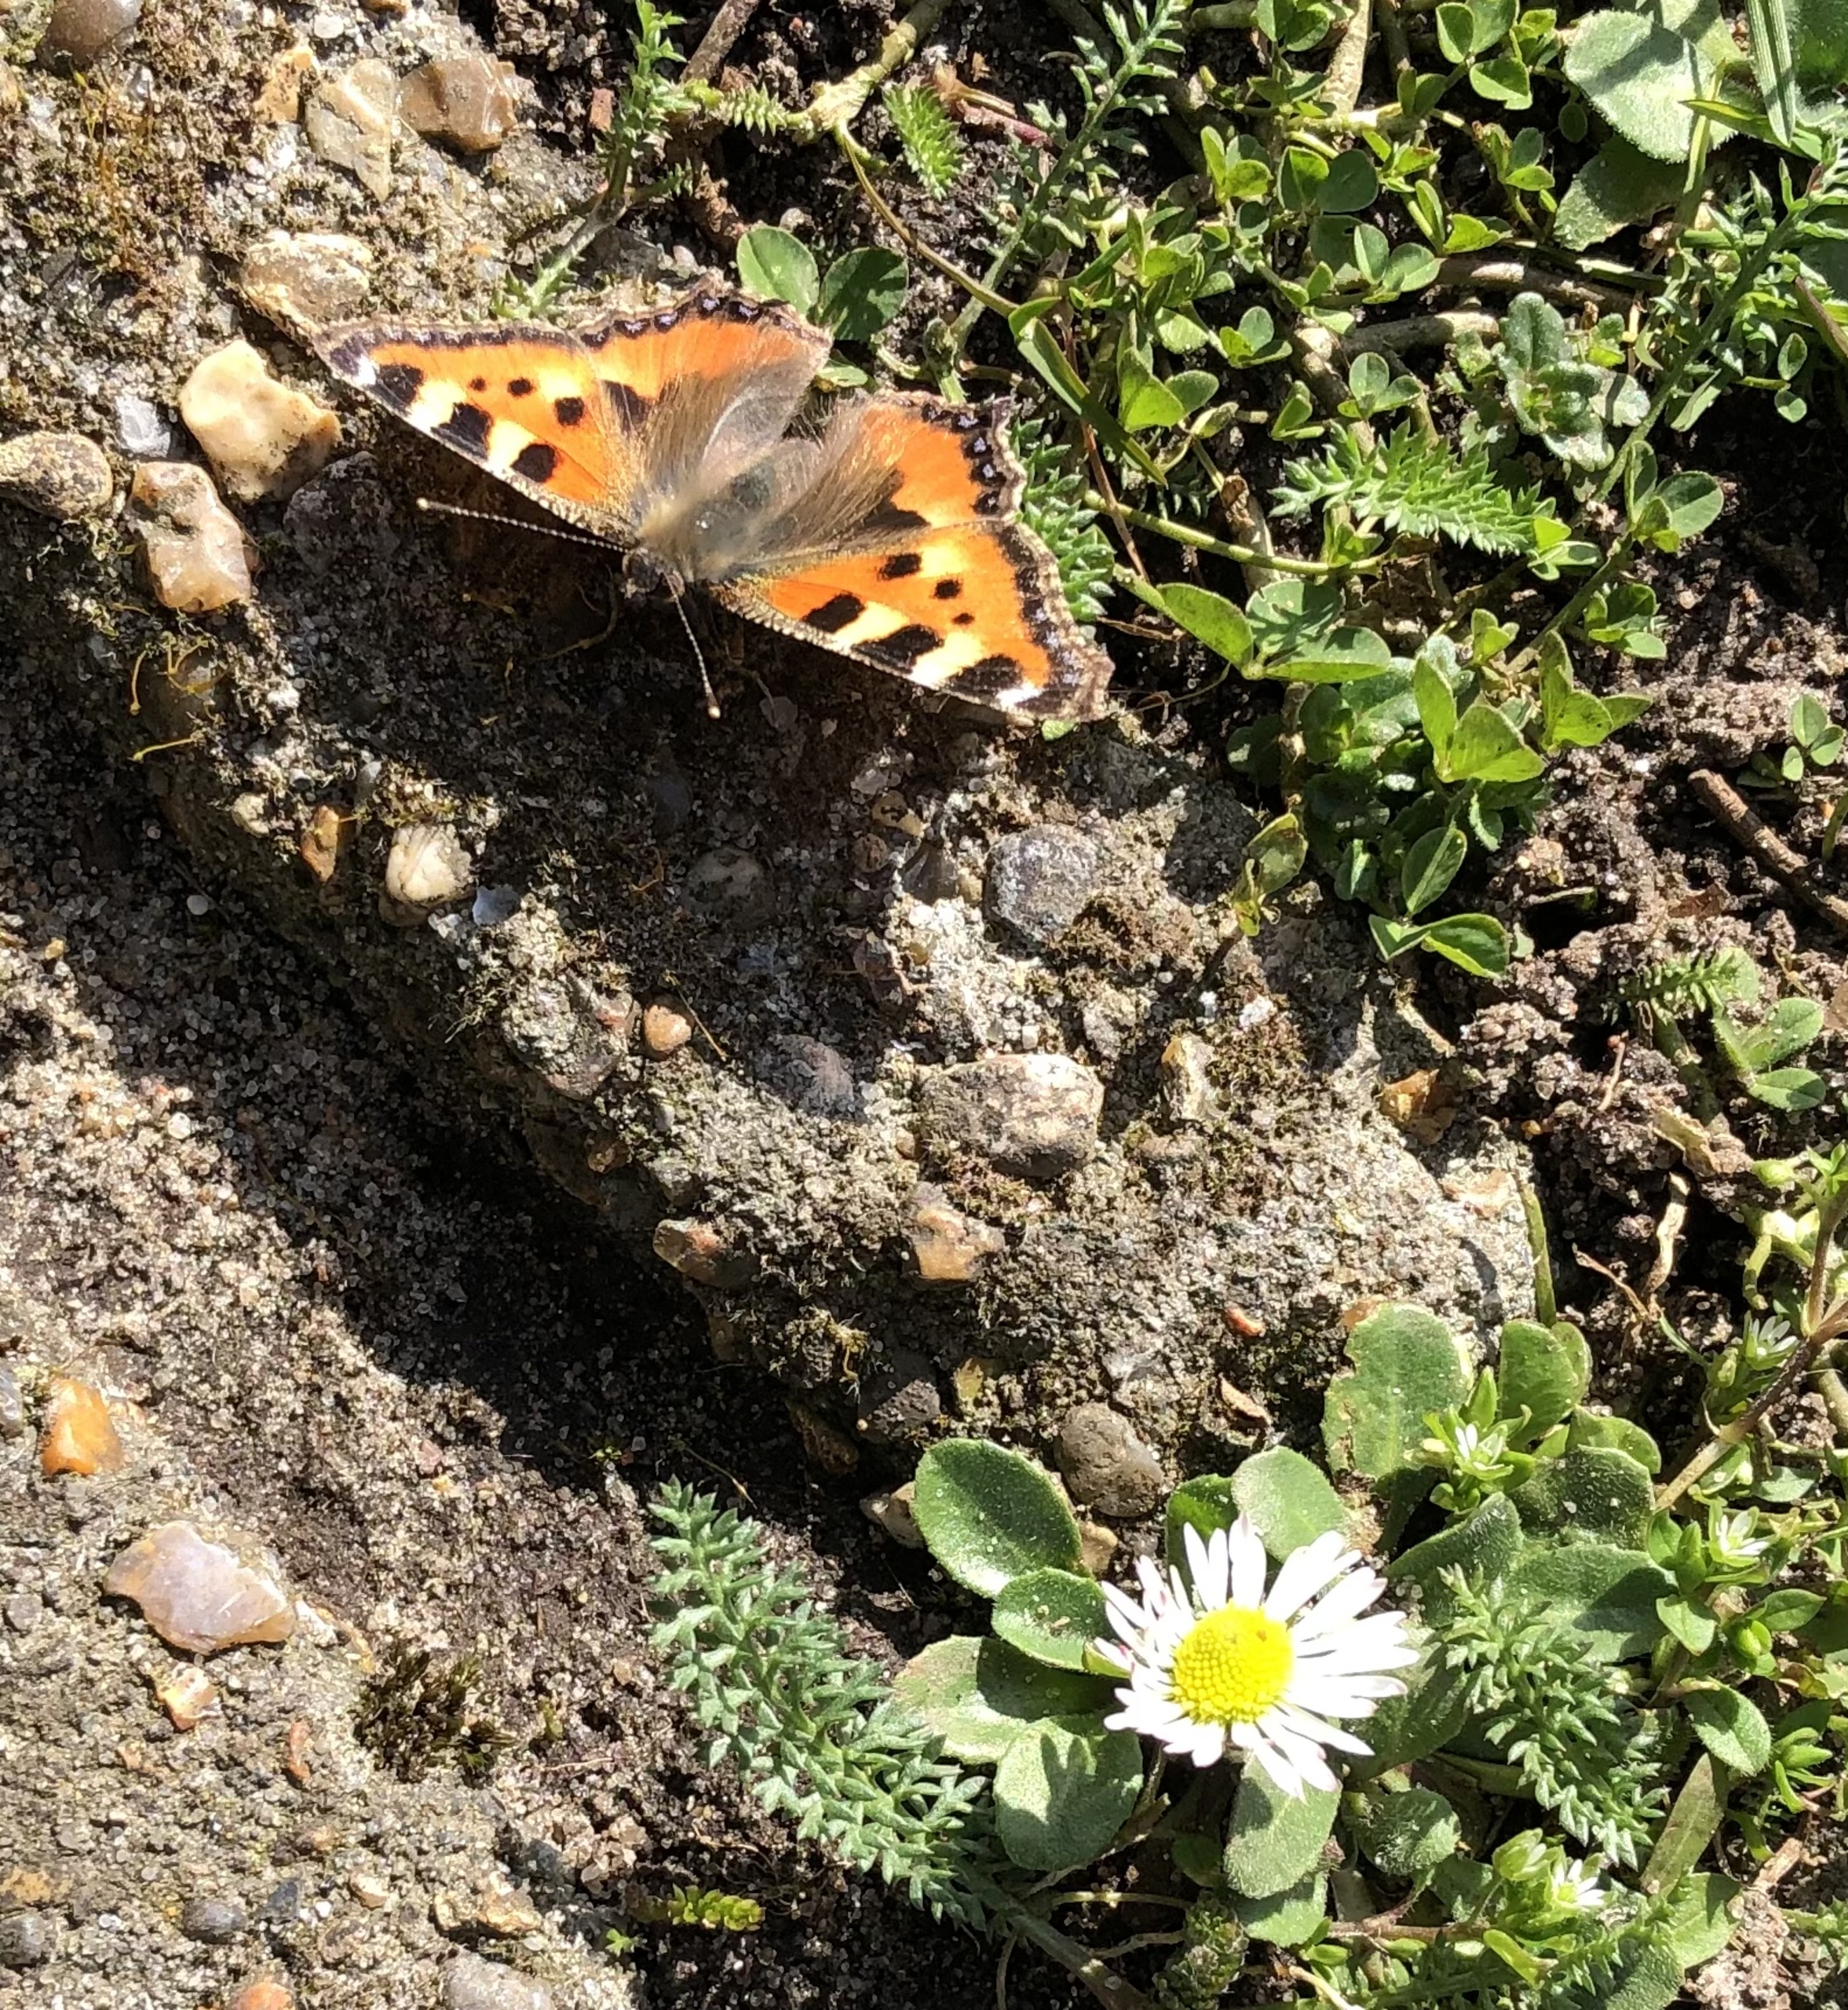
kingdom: Animalia
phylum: Arthropoda
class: Insecta
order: Lepidoptera
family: Nymphalidae
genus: Aglais
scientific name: Aglais urticae
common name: Nældens takvinge
